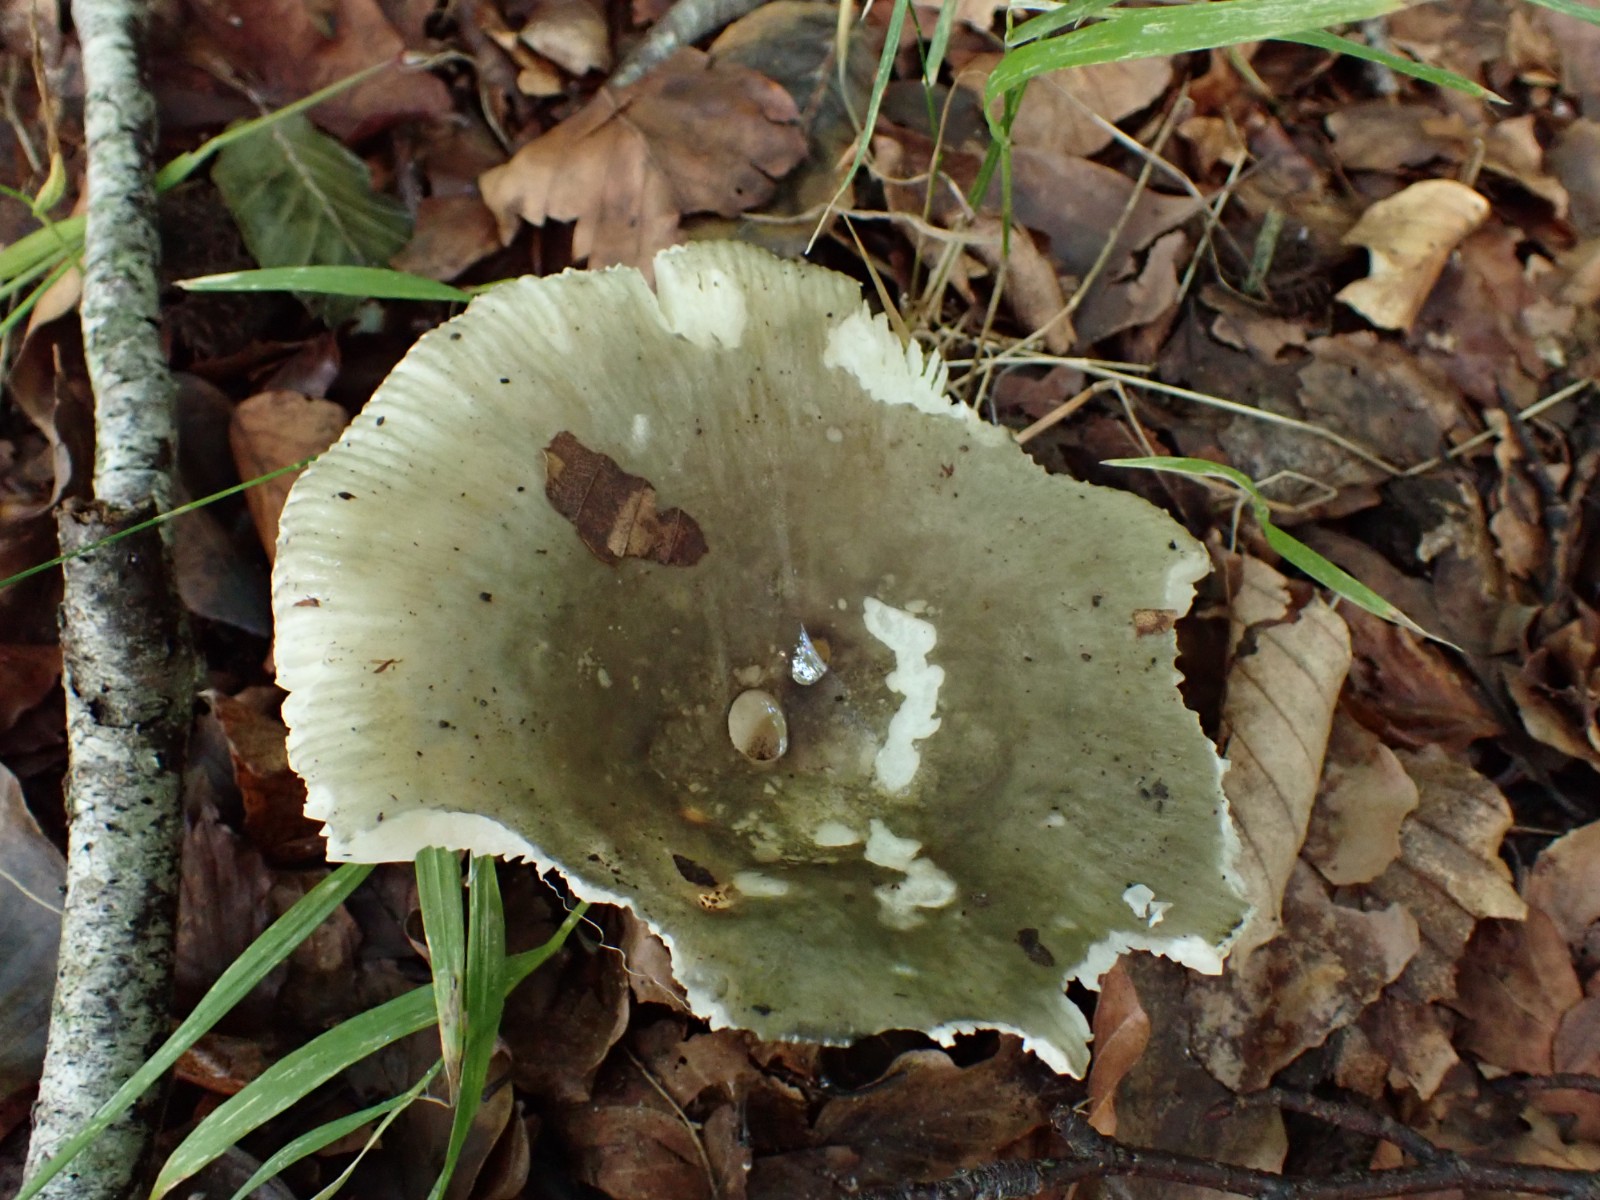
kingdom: Fungi
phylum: Basidiomycota
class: Agaricomycetes
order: Russulales
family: Russulaceae
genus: Russula
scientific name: Russula
